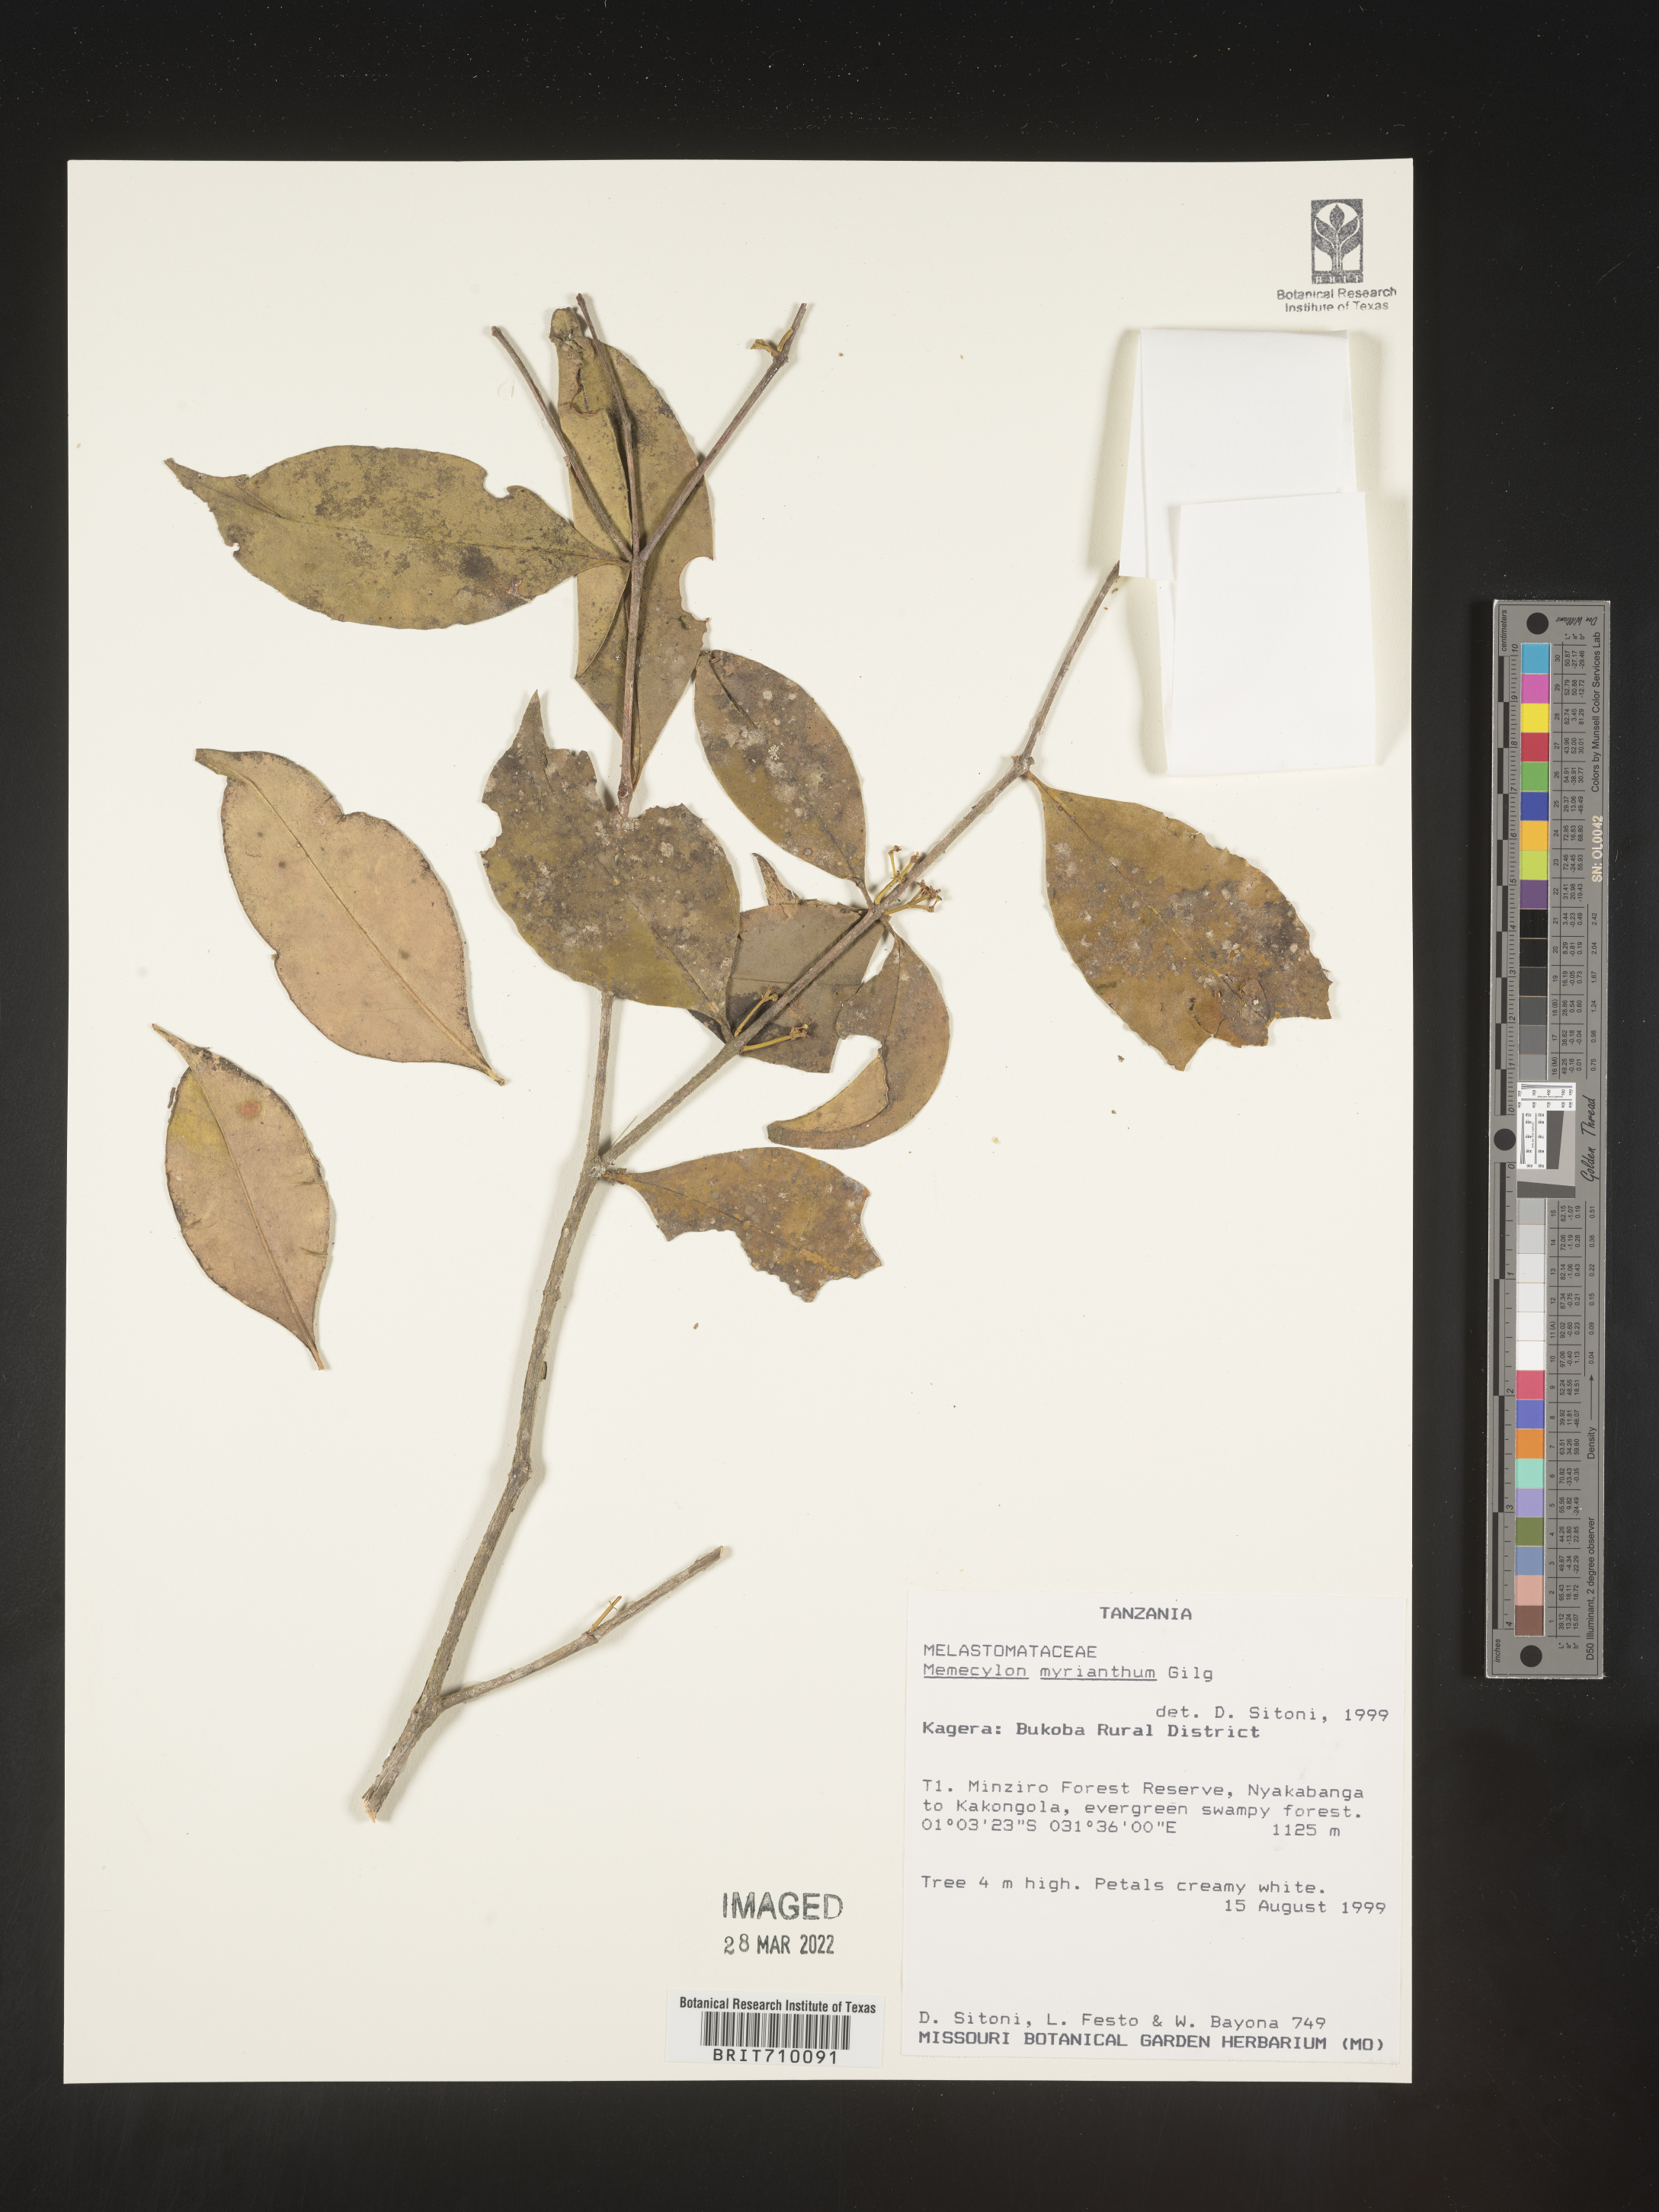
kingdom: Plantae
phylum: Tracheophyta
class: Magnoliopsida
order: Myrtales
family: Melastomataceae
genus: Memecylon
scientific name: Memecylon
